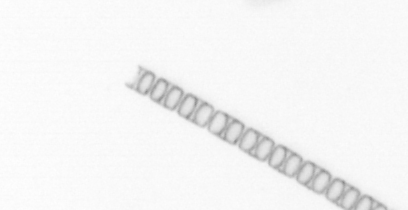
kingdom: Chromista
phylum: Ochrophyta
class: Bacillariophyceae
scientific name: Bacillariophyceae
